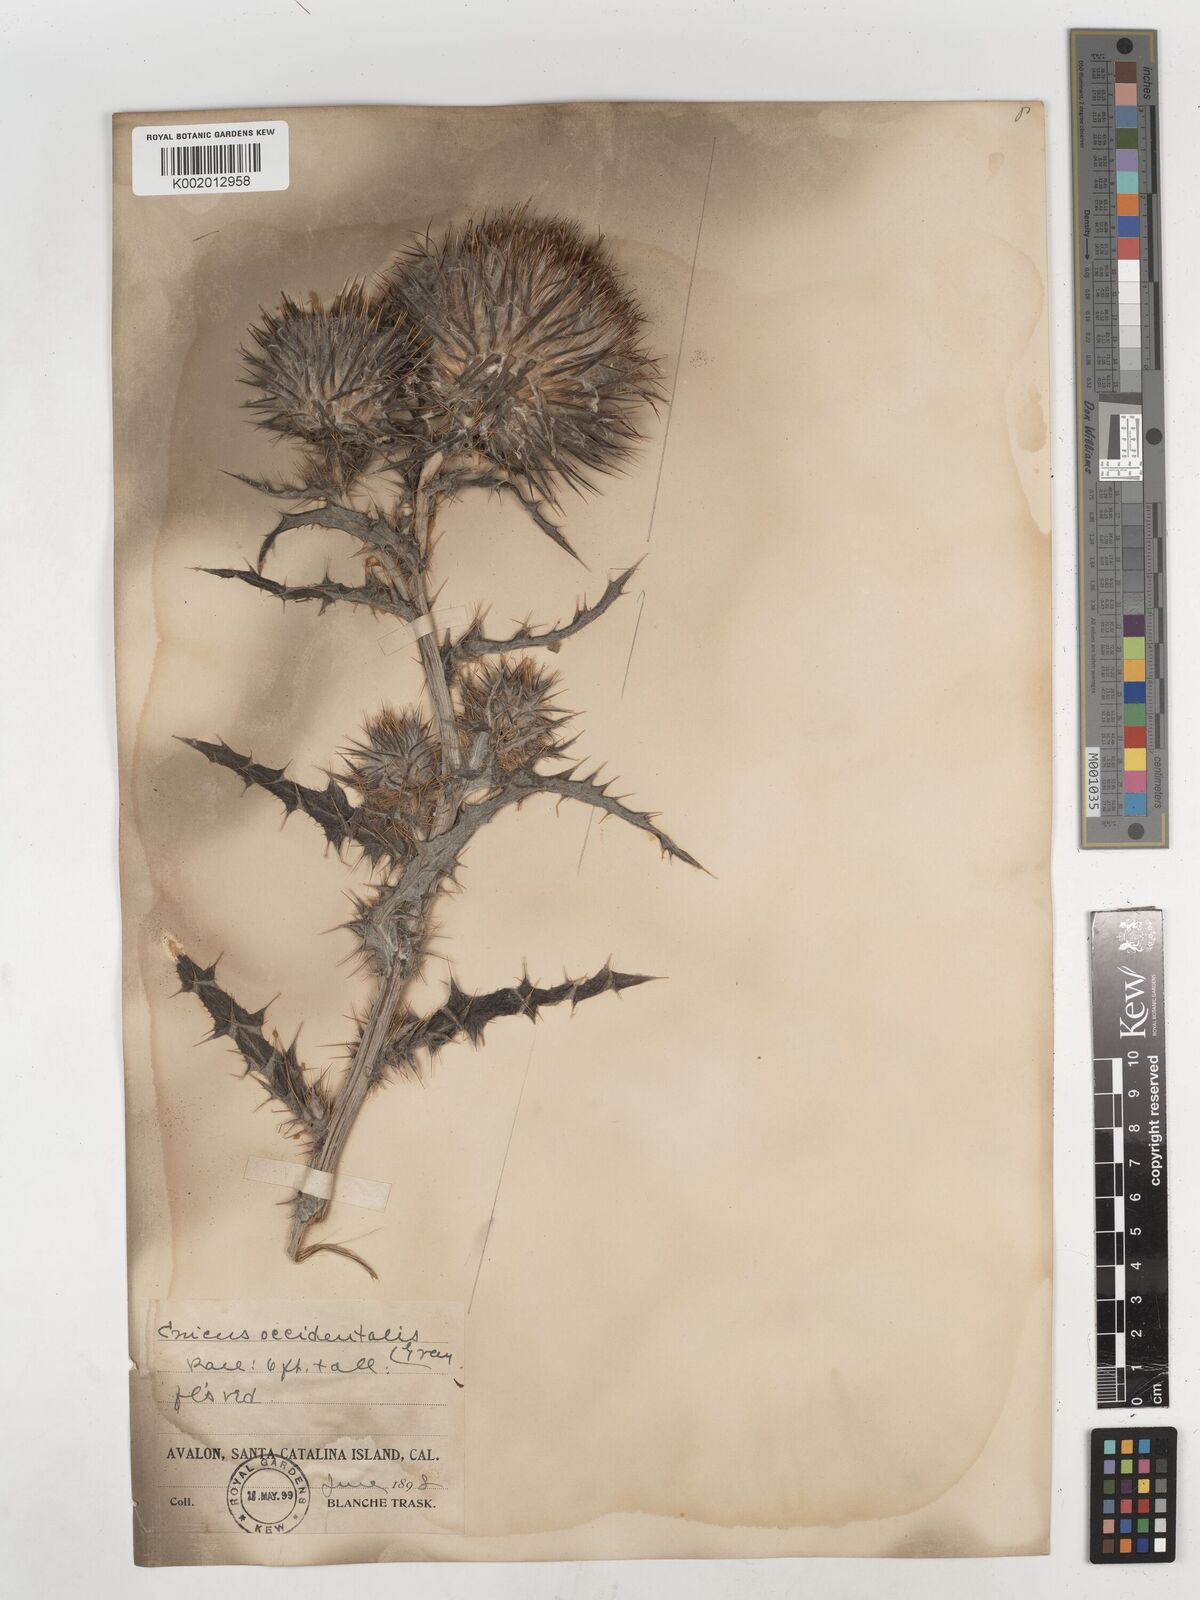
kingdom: Plantae
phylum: Tracheophyta
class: Magnoliopsida
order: Asterales
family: Asteraceae
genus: Cirsium
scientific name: Cirsium occidentale
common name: Western thistle
